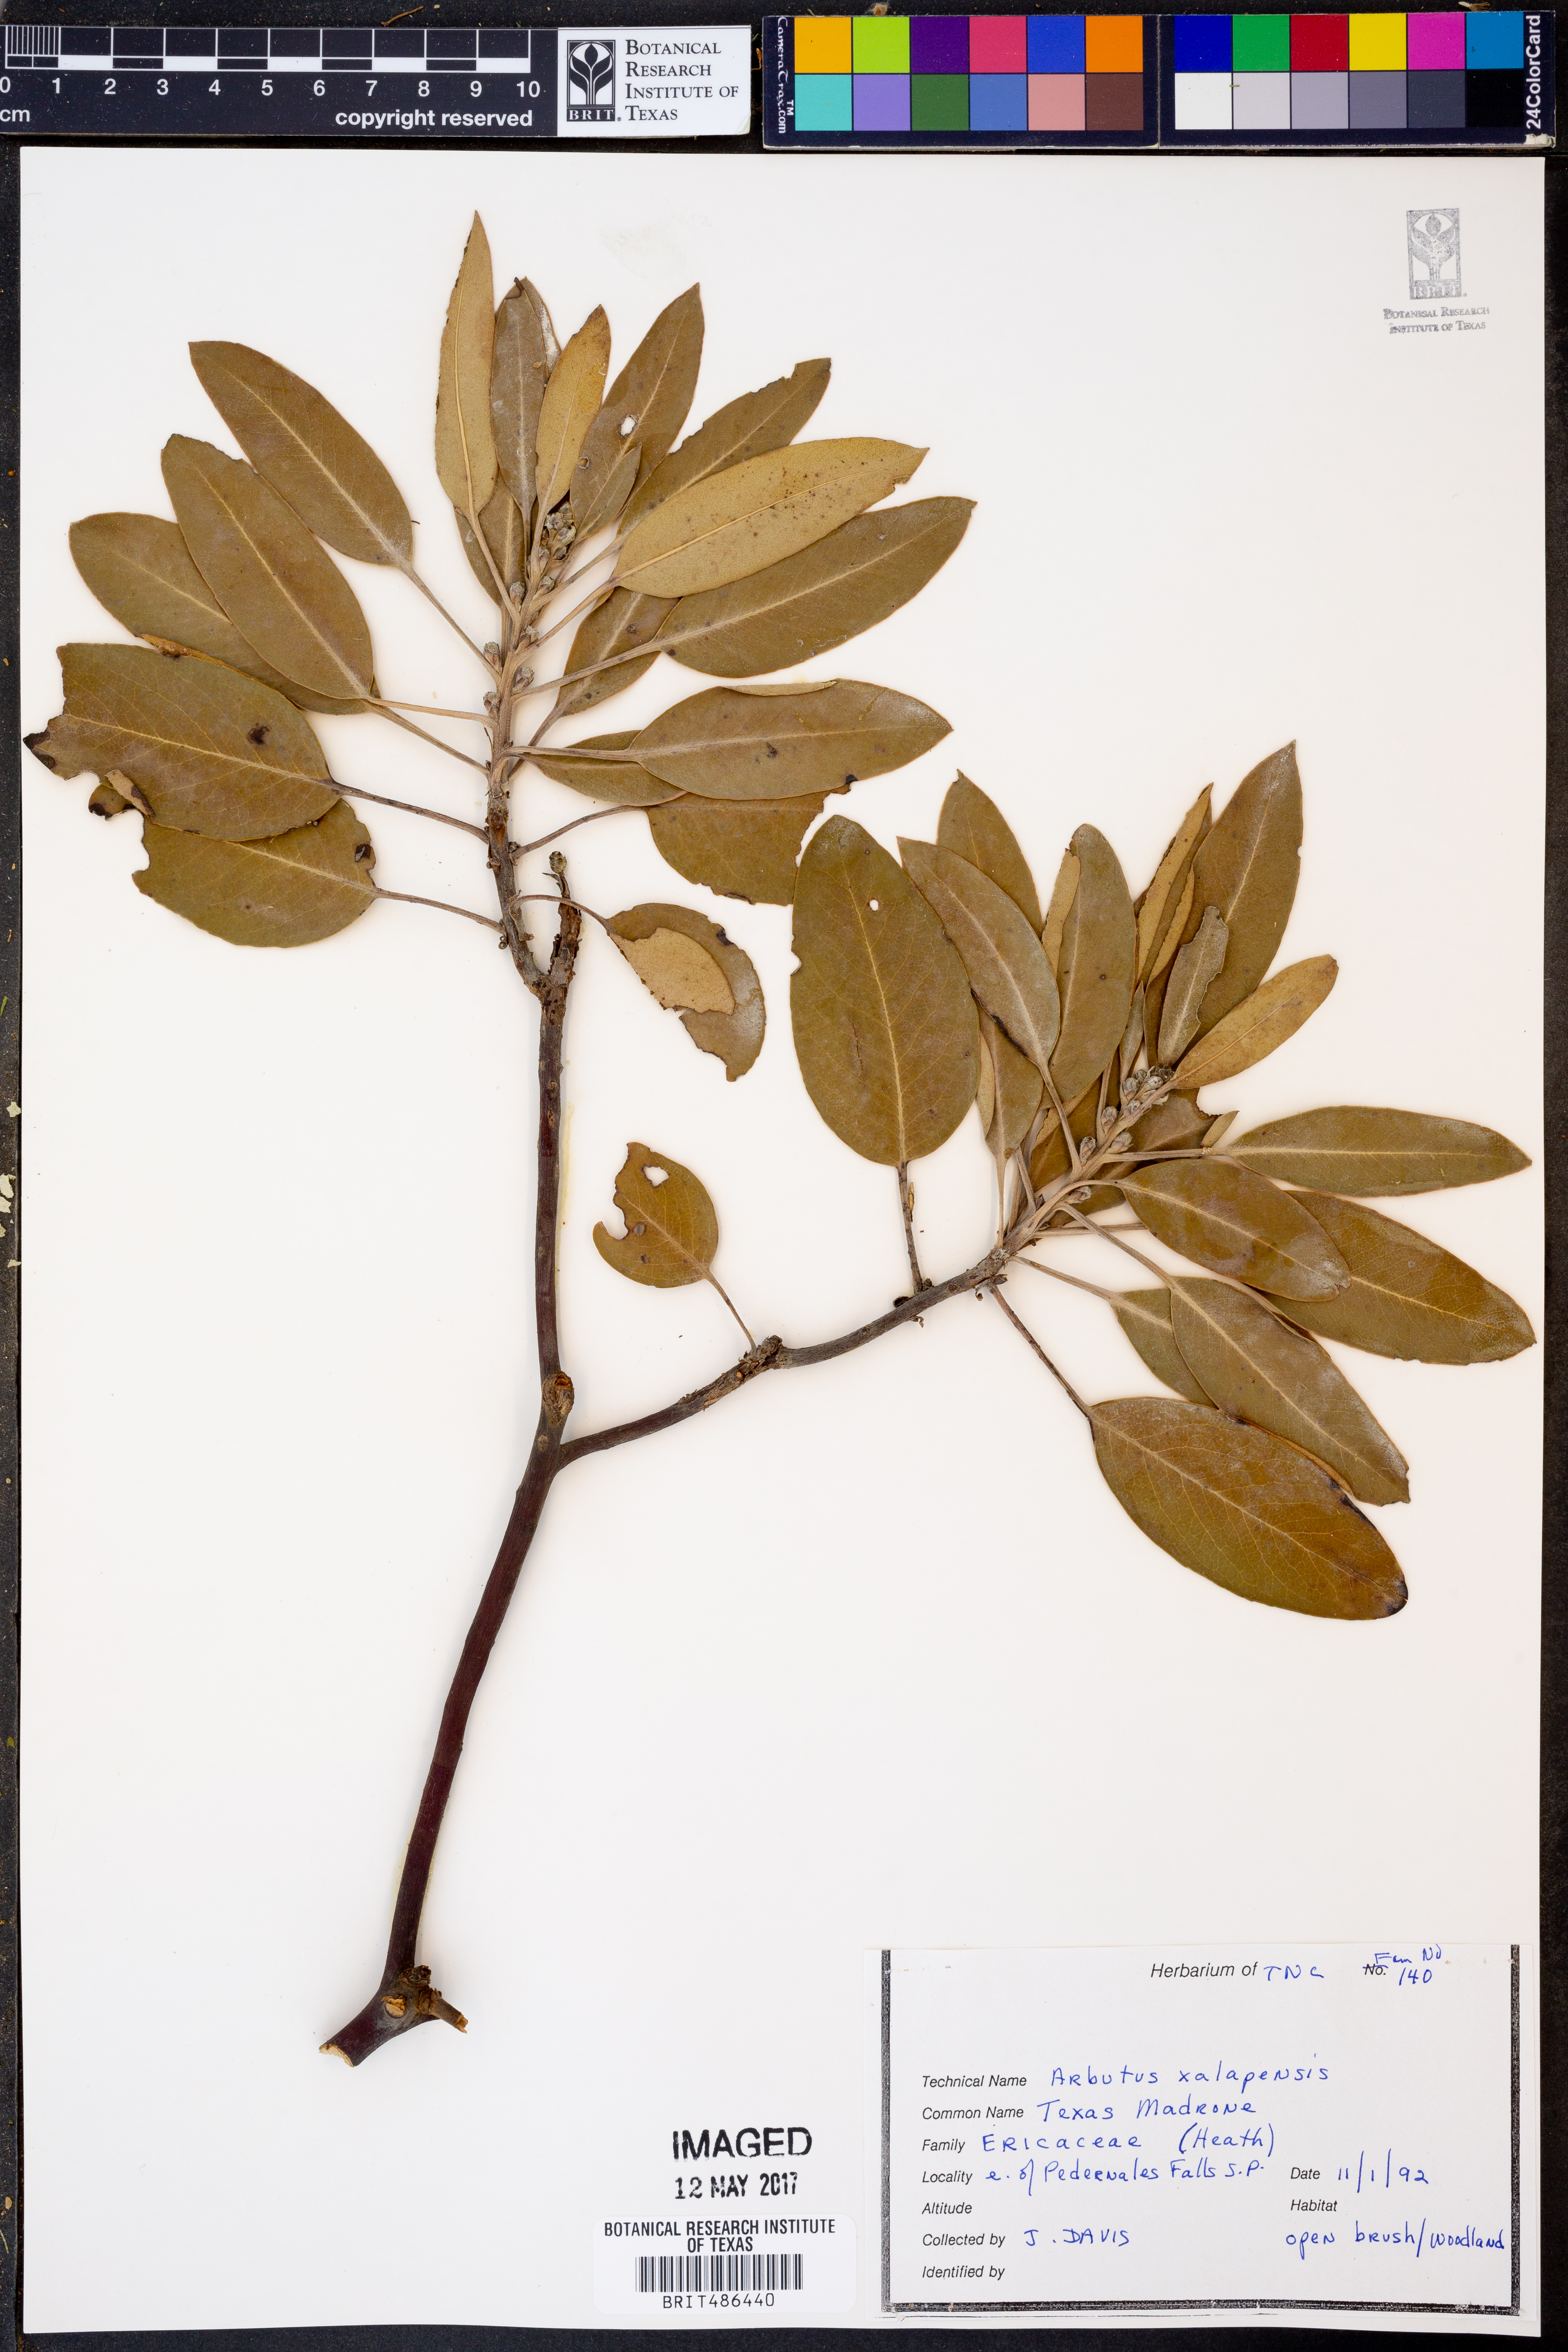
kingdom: Plantae
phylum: Tracheophyta
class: Magnoliopsida
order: Ericales
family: Ericaceae
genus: Arbutus
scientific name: Arbutus xalapensis
